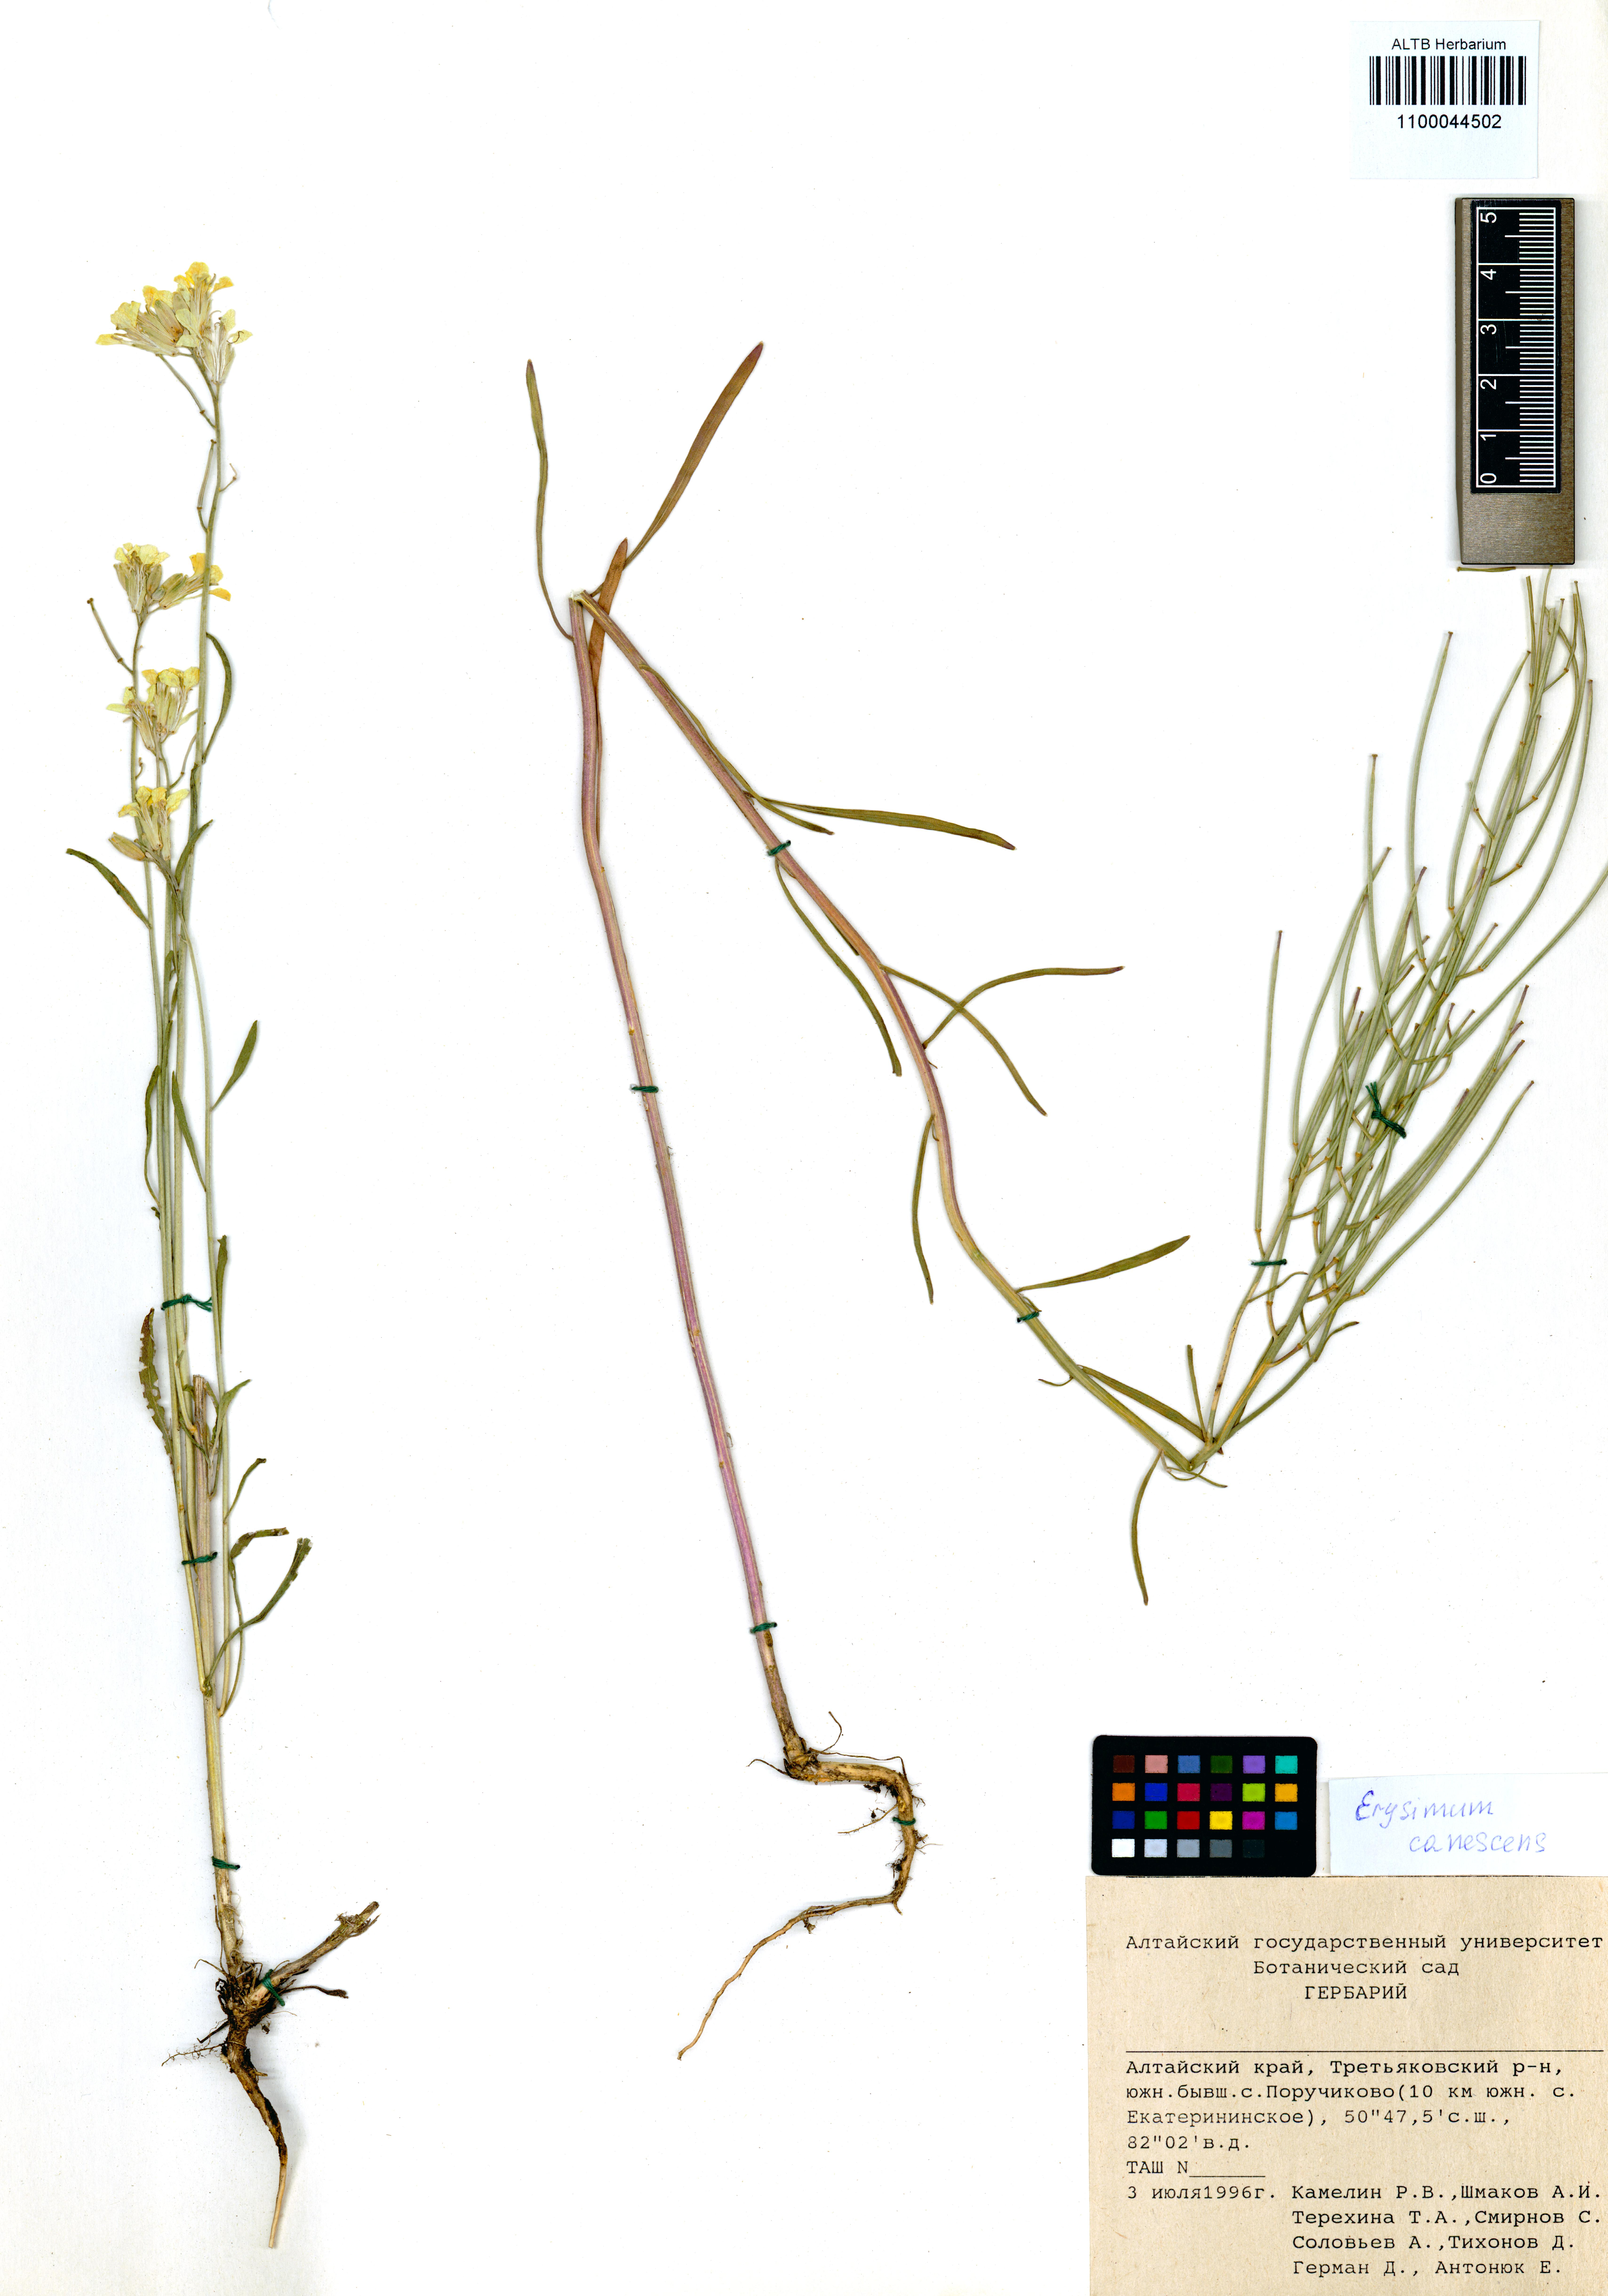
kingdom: Plantae
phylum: Tracheophyta
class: Magnoliopsida
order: Brassicales
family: Brassicaceae
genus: Erysimum
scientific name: Erysimum canescens
